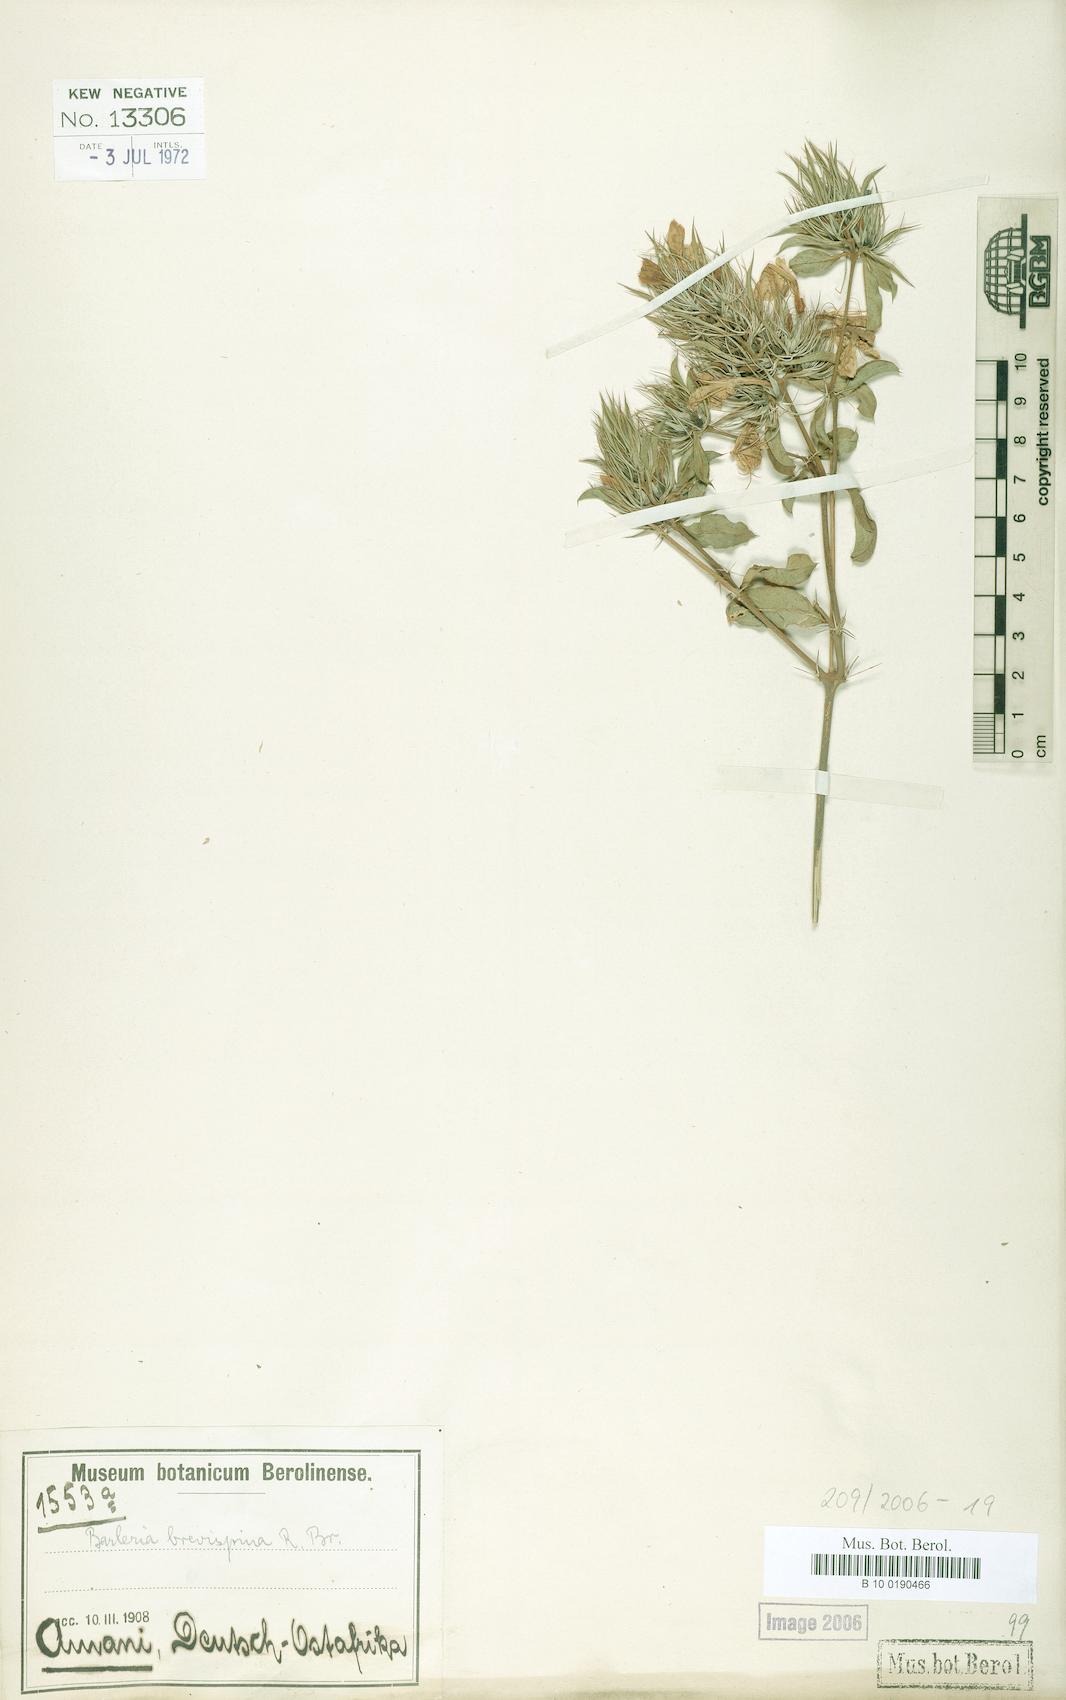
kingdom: Plantae
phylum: Tracheophyta
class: Magnoliopsida
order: Lamiales
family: Acanthaceae
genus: Barleria
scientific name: Barleria polhillii
